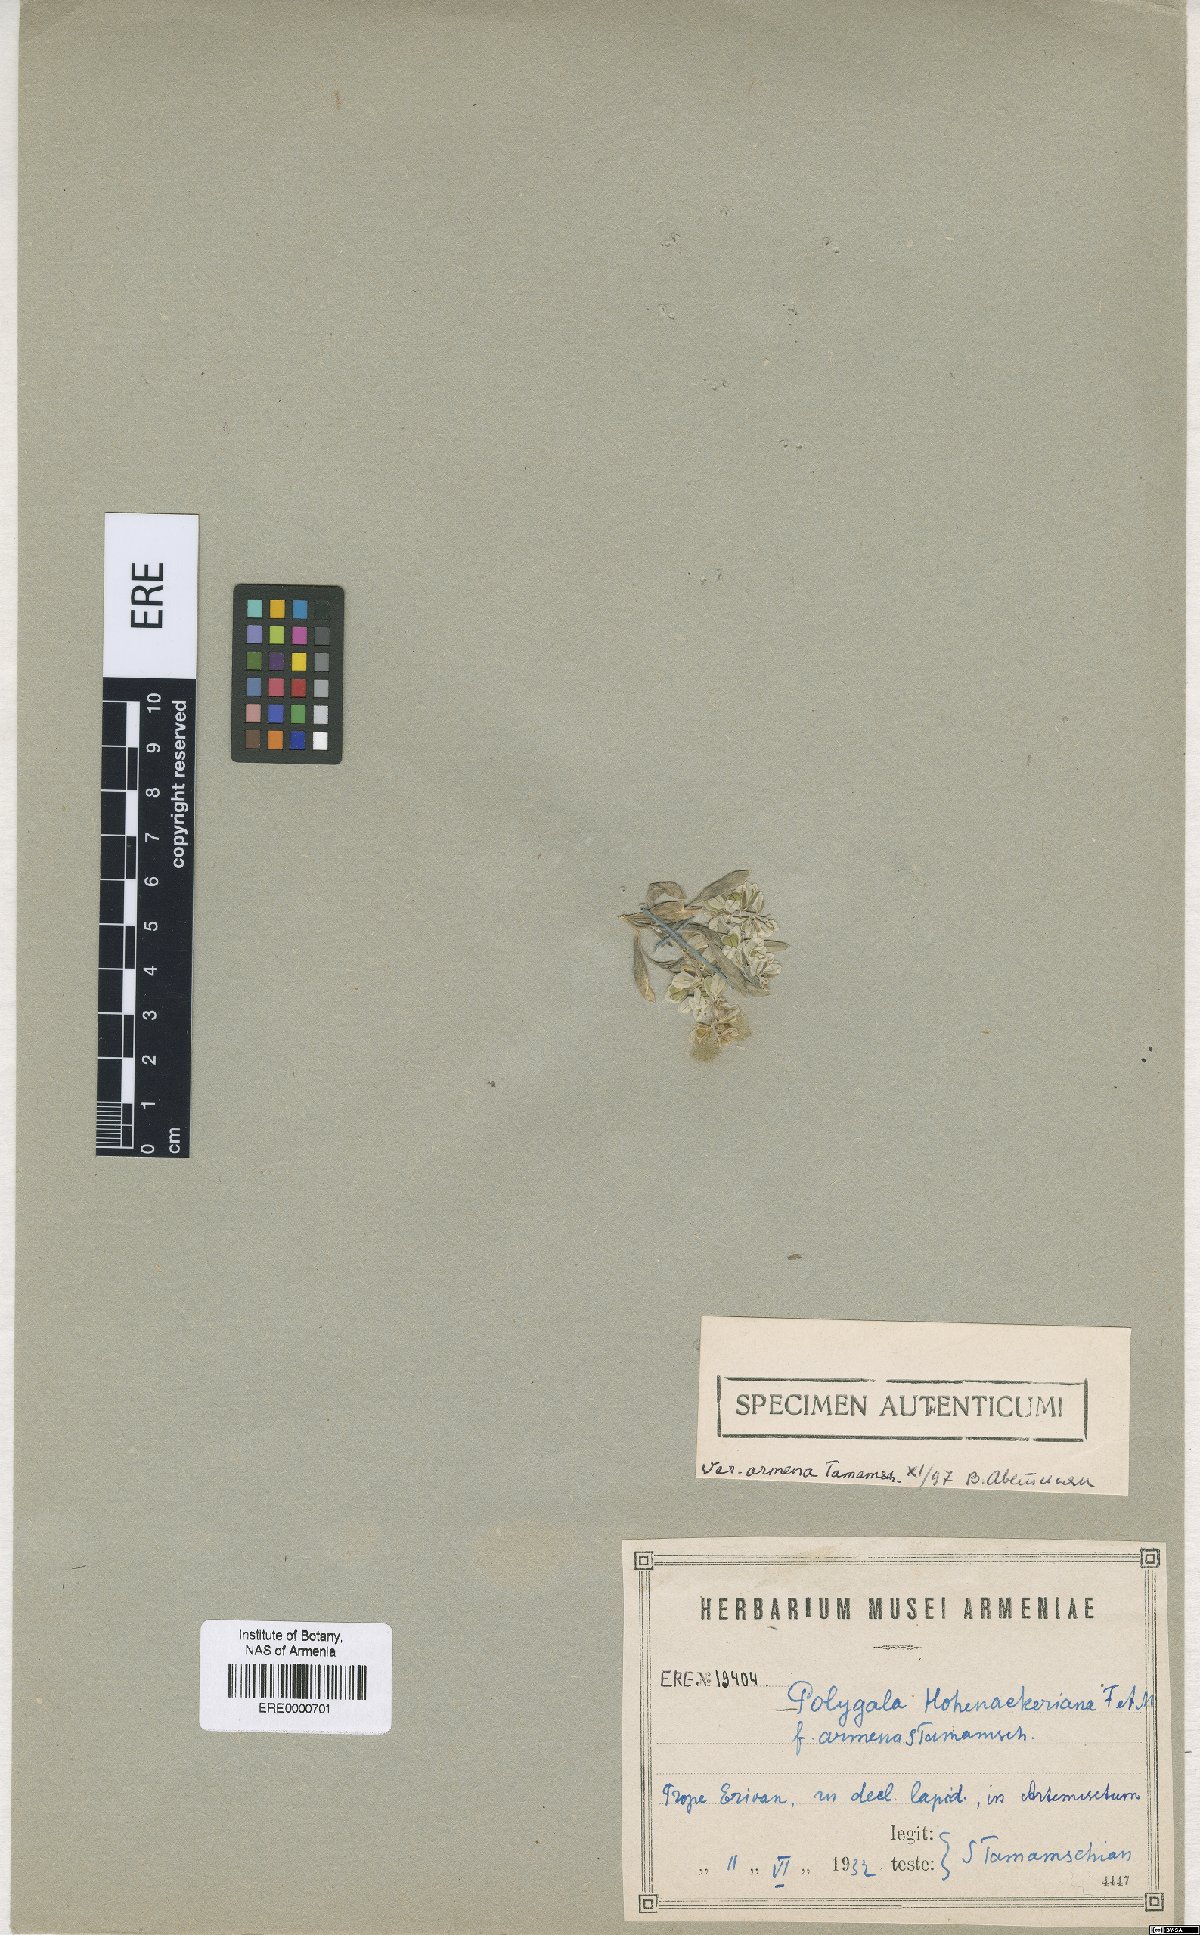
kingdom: Plantae
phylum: Tracheophyta
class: Magnoliopsida
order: Fabales
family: Polygalaceae
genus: Polygala
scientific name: Polygala hohenackeriana
